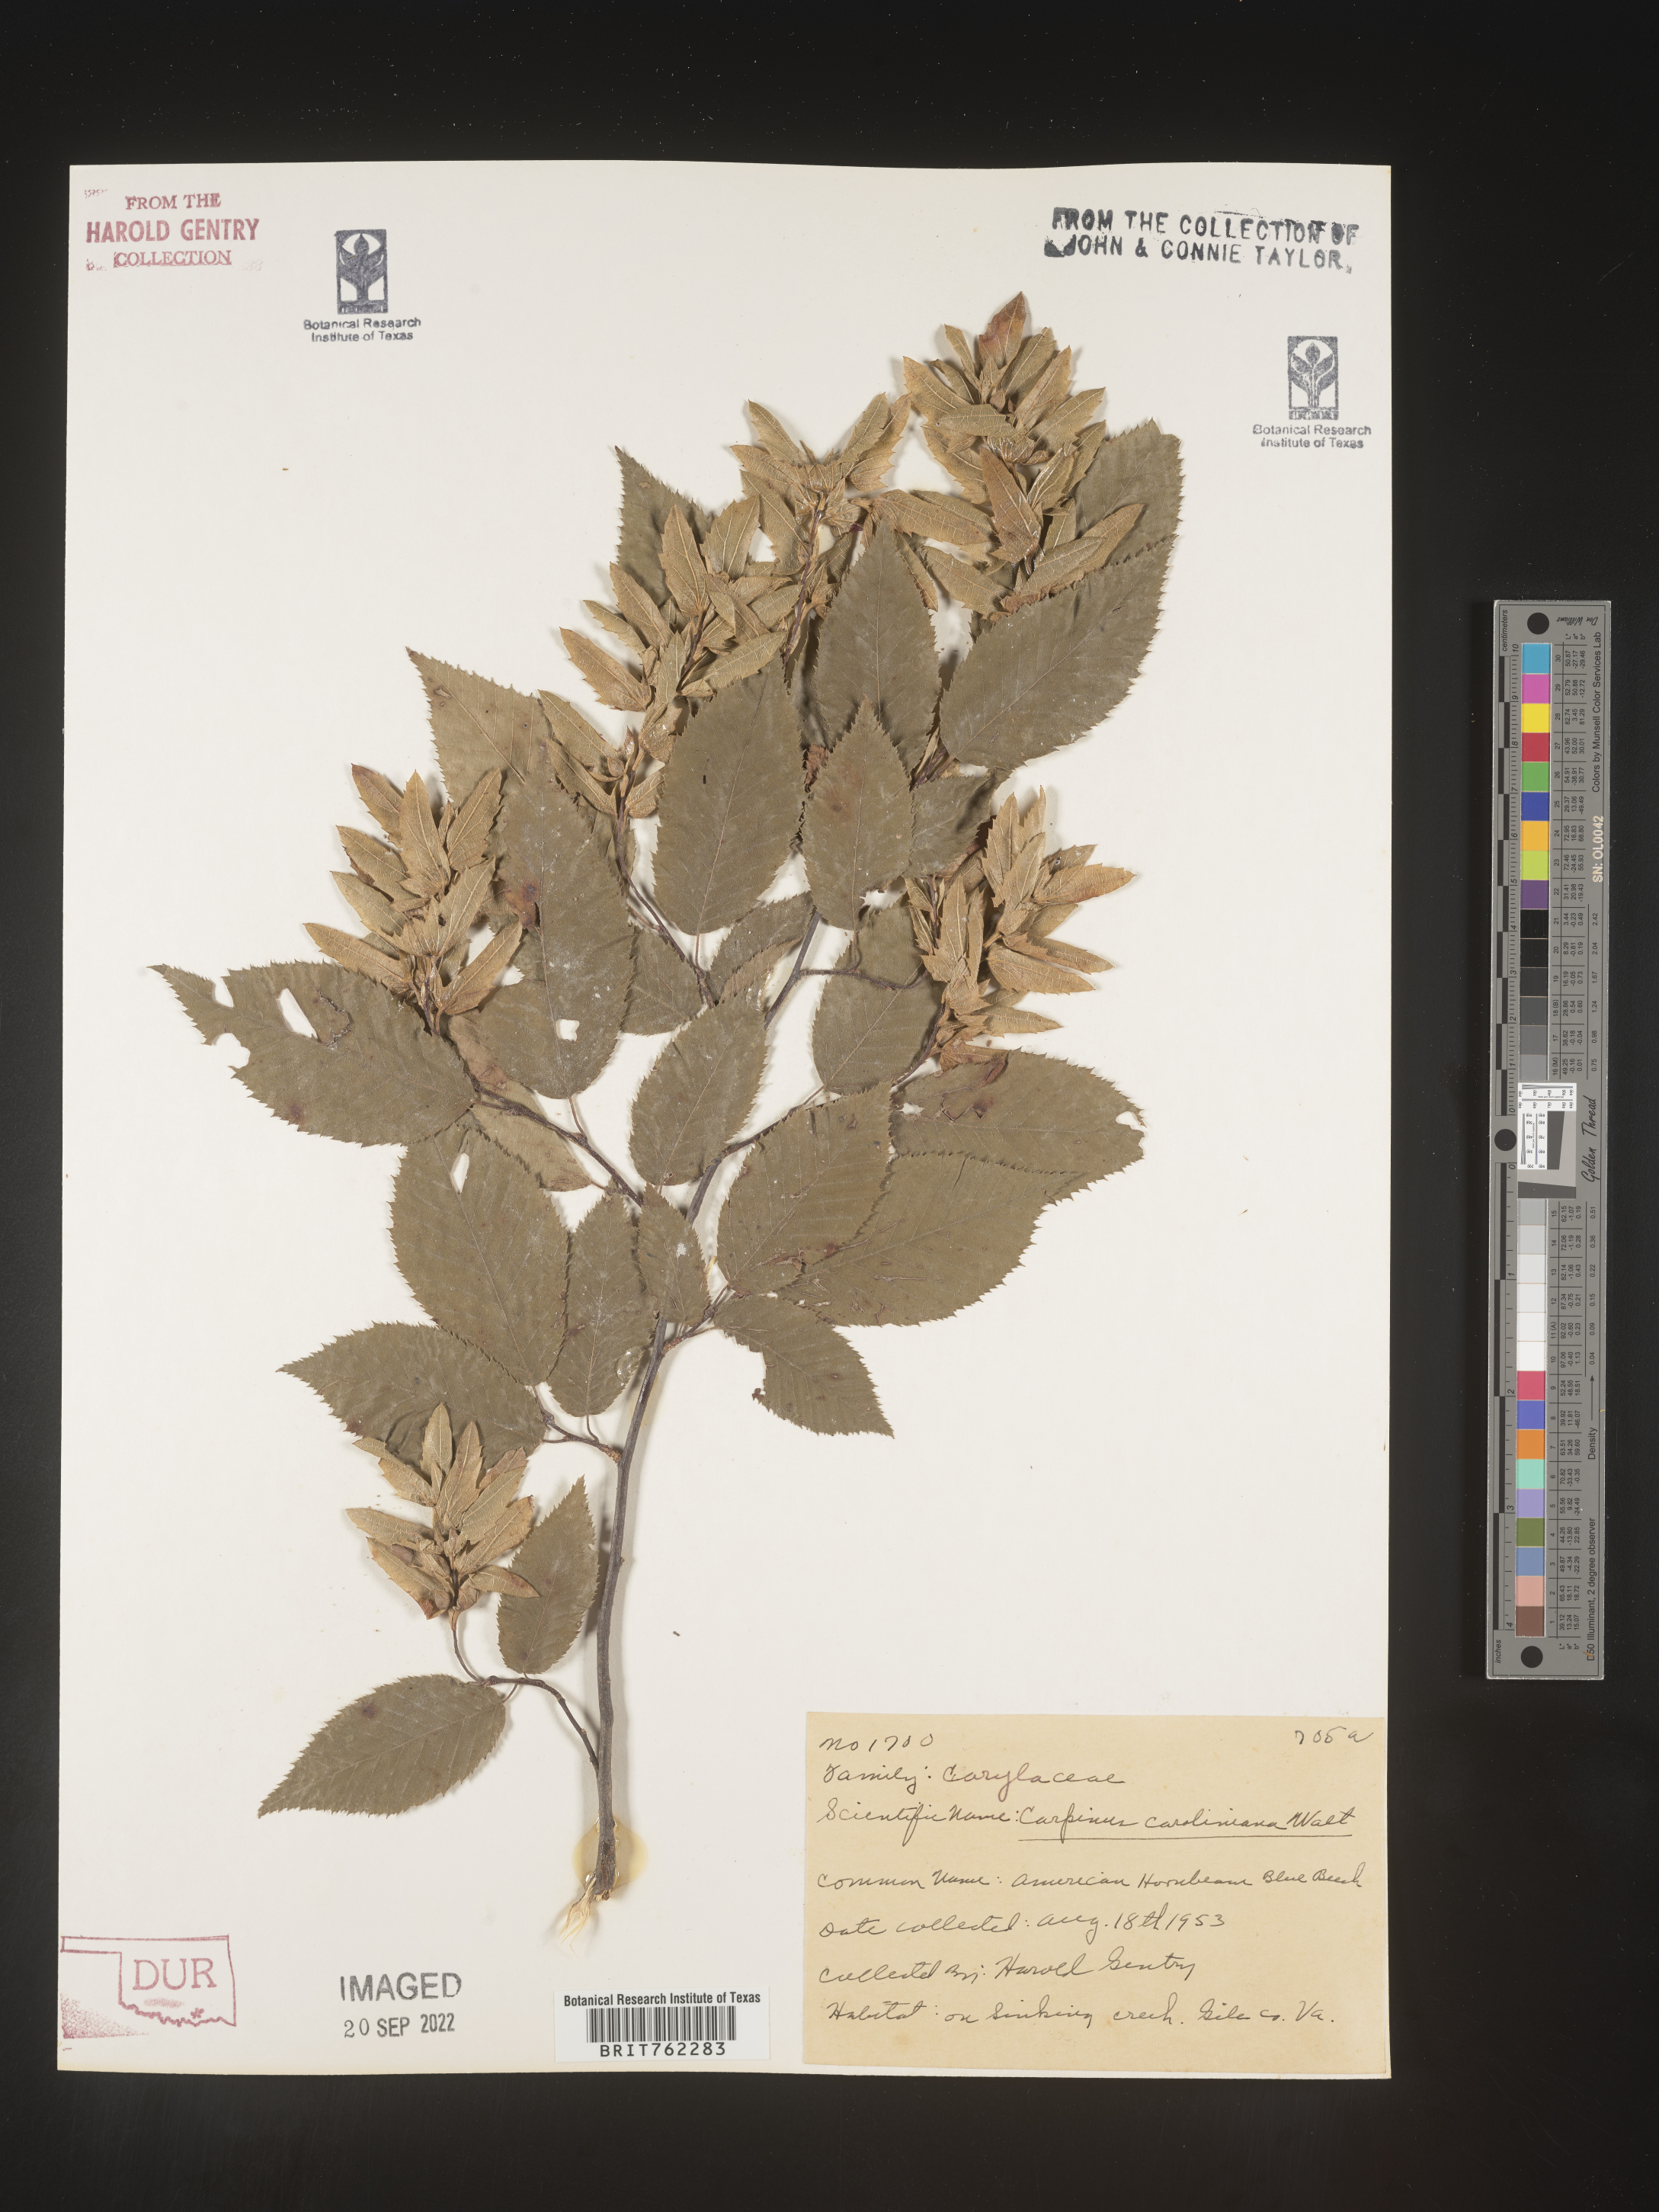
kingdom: Plantae
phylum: Tracheophyta
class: Magnoliopsida
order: Fagales
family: Betulaceae
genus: Carpinus
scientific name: Carpinus caroliniana
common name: American hornbeam
